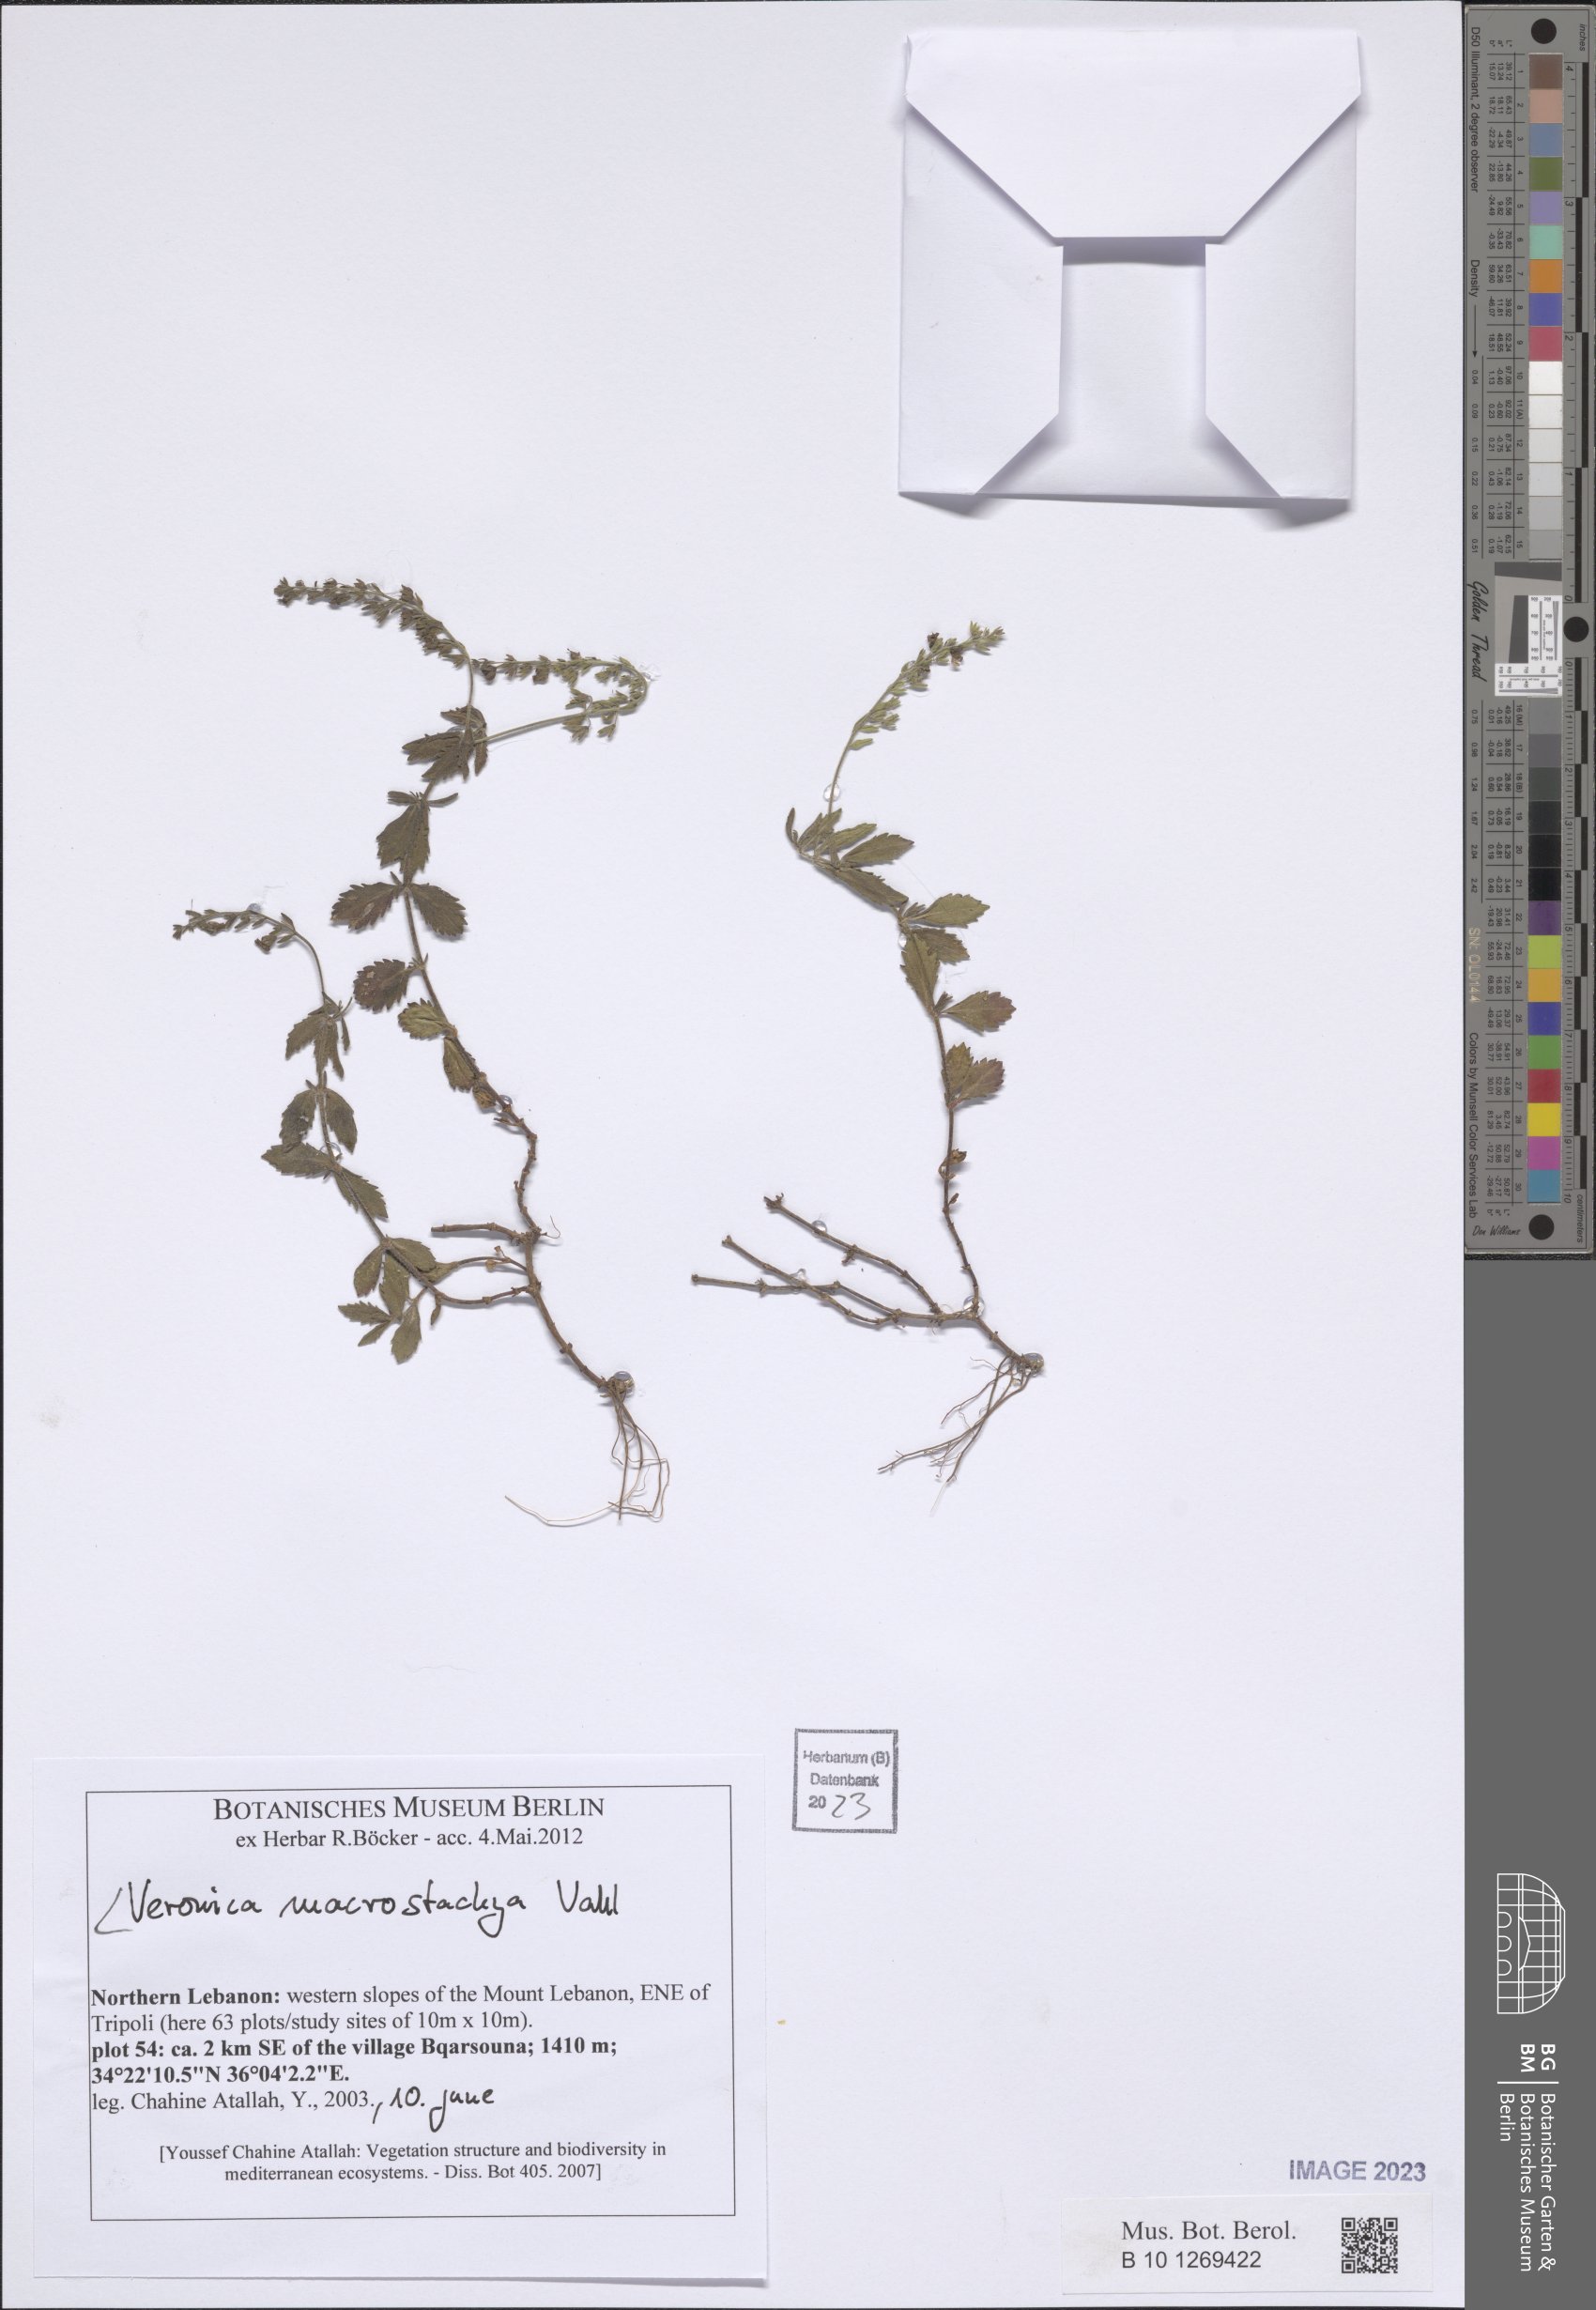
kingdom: Plantae
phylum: Tracheophyta
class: Magnoliopsida
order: Lamiales
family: Plantaginaceae
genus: Veronica
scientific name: Veronica macrostachya
